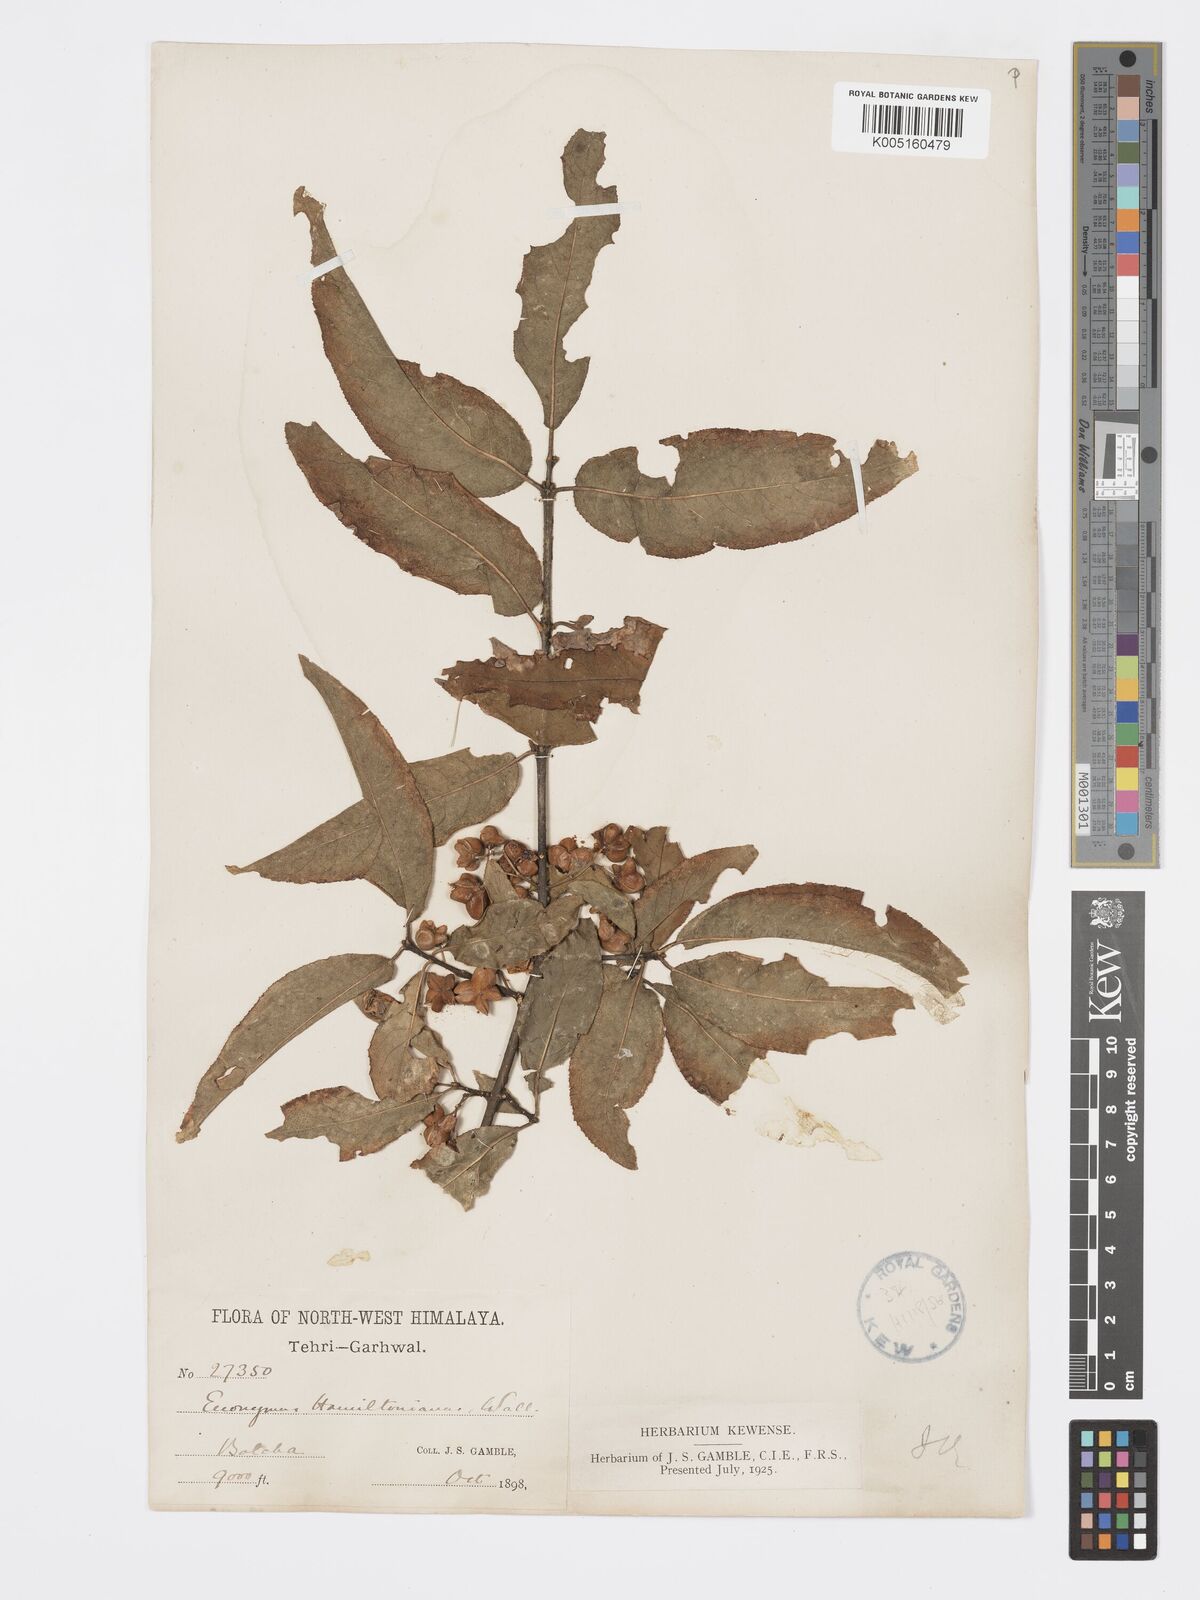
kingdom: Plantae
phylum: Tracheophyta
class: Magnoliopsida
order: Celastrales
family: Celastraceae
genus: Euonymus
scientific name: Euonymus
